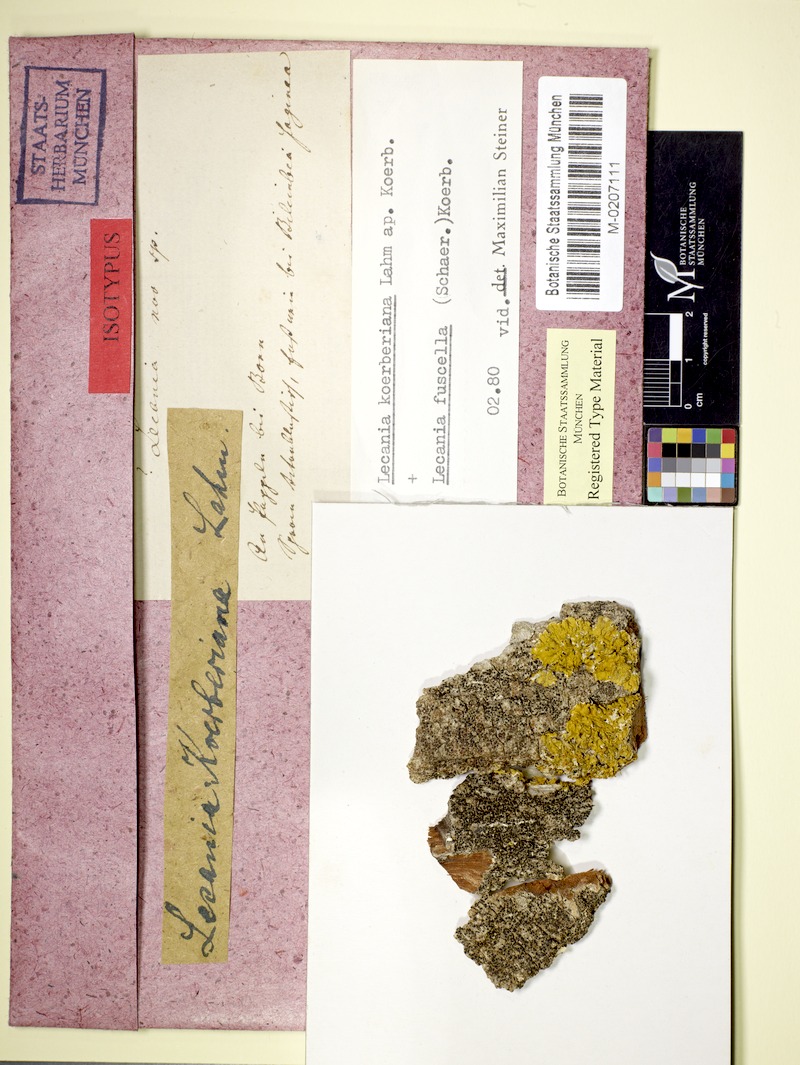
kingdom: Fungi
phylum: Ascomycota
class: Lecanoromycetes
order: Lecanorales
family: Ramalinaceae
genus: Lecania
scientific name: Lecania koerberiana
